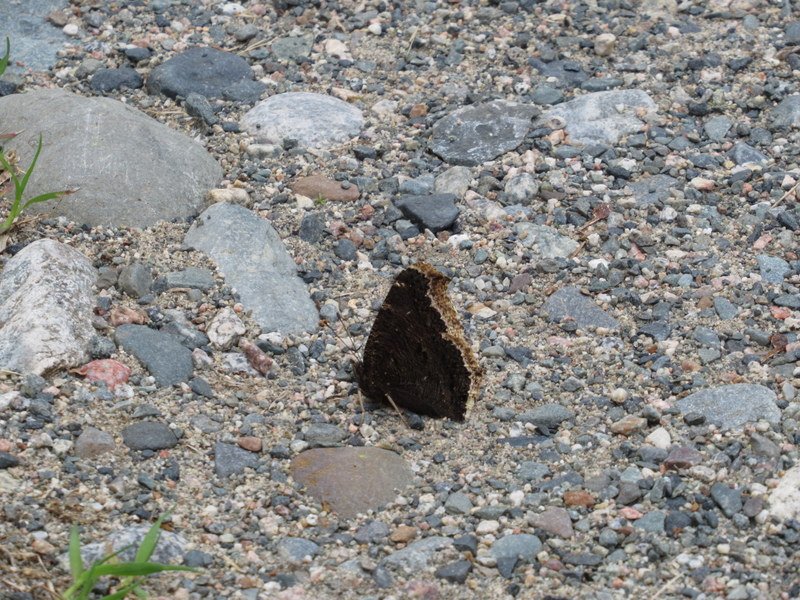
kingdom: Animalia
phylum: Arthropoda
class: Insecta
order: Lepidoptera
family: Nymphalidae
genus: Nymphalis
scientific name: Nymphalis antiopa
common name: Mourning Cloak
